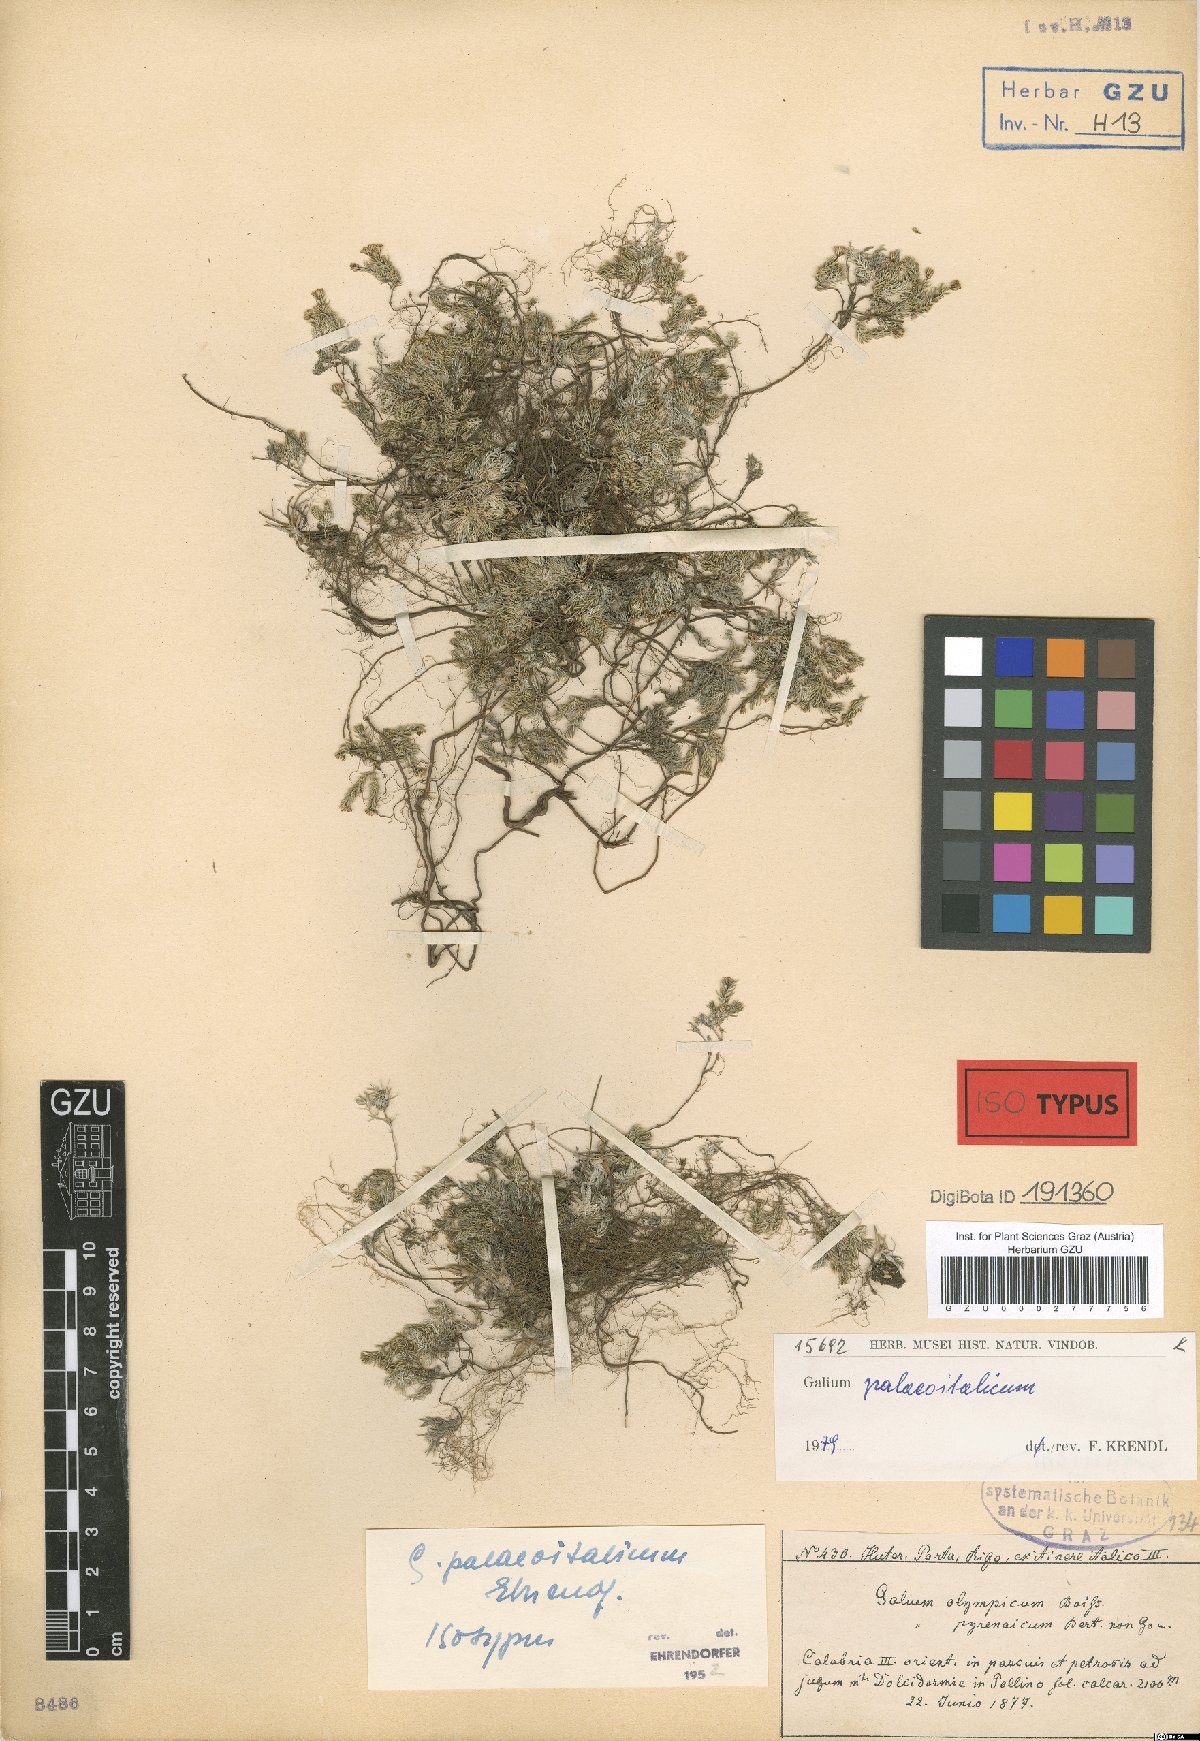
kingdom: Plantae
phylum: Tracheophyta
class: Magnoliopsida
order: Gentianales
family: Rubiaceae
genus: Galium
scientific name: Galium palaeoitalicum
